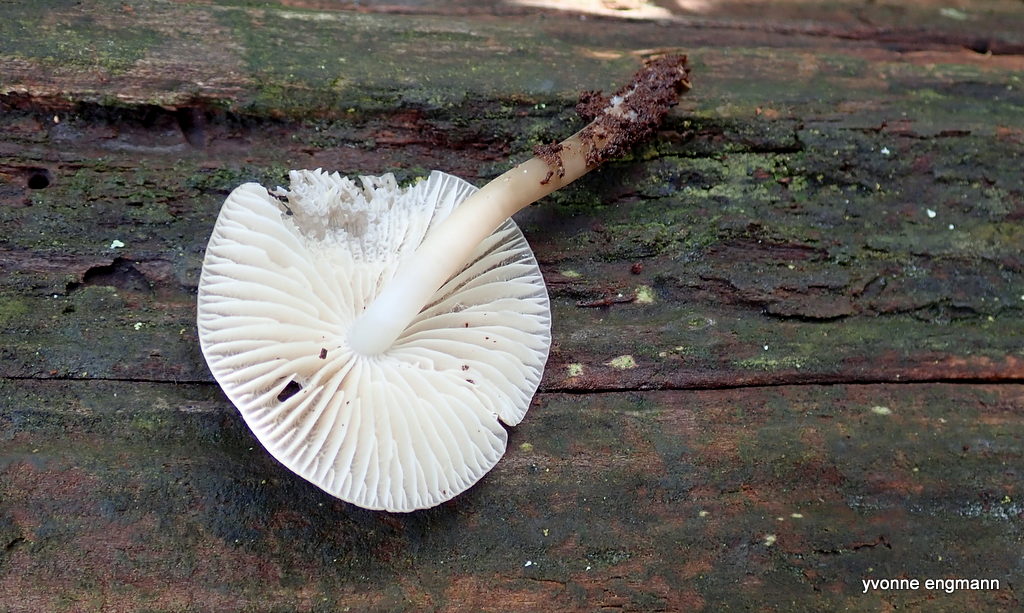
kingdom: Fungi
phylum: Basidiomycota
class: Agaricomycetes
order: Agaricales
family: Mycenaceae
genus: Mycena
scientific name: Mycena galericulata
